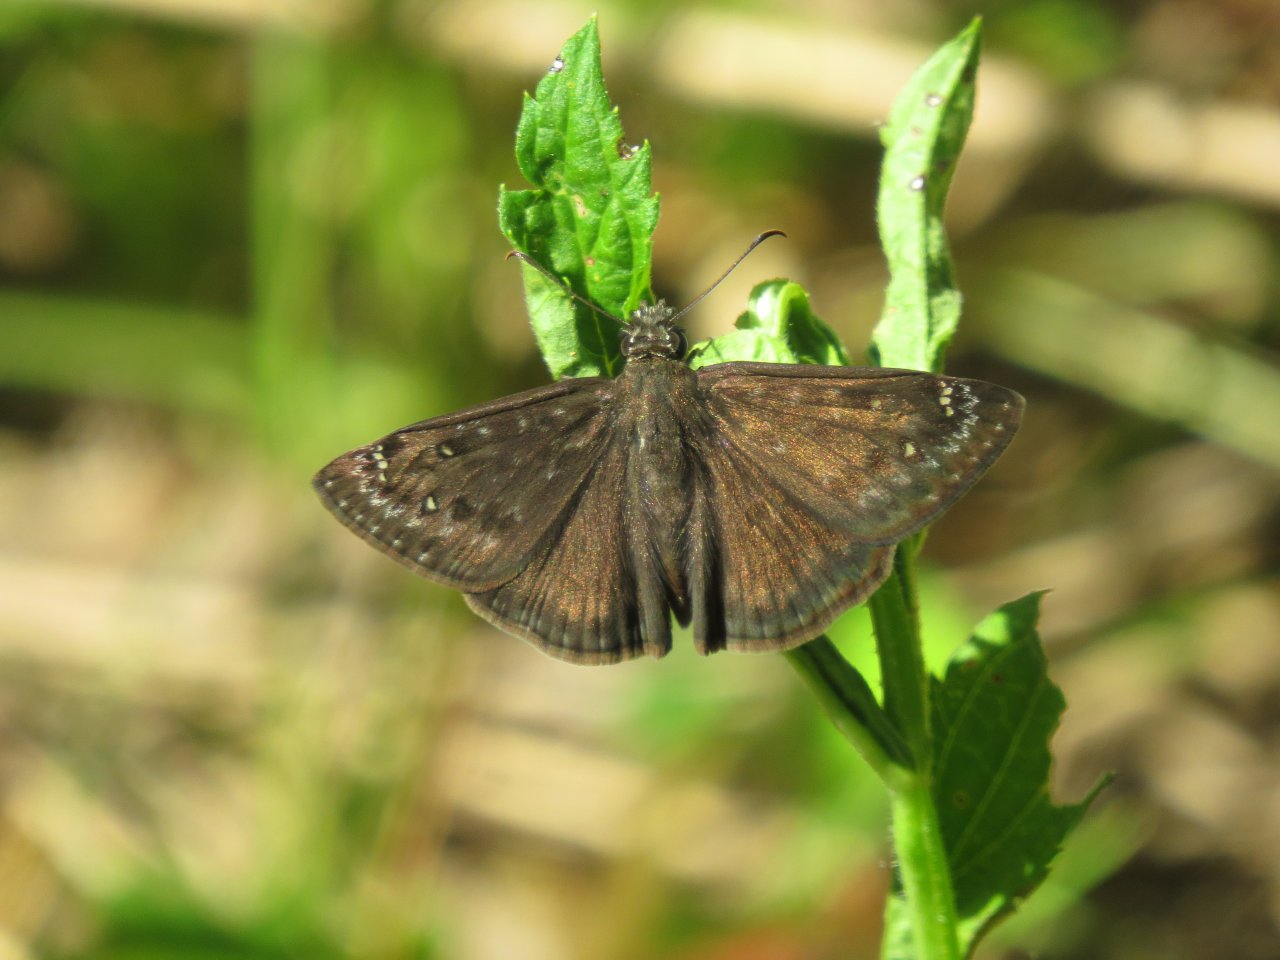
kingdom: Animalia
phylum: Arthropoda
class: Insecta
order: Lepidoptera
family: Hesperiidae
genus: Gesta
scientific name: Gesta
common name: Horace's Duskywing
